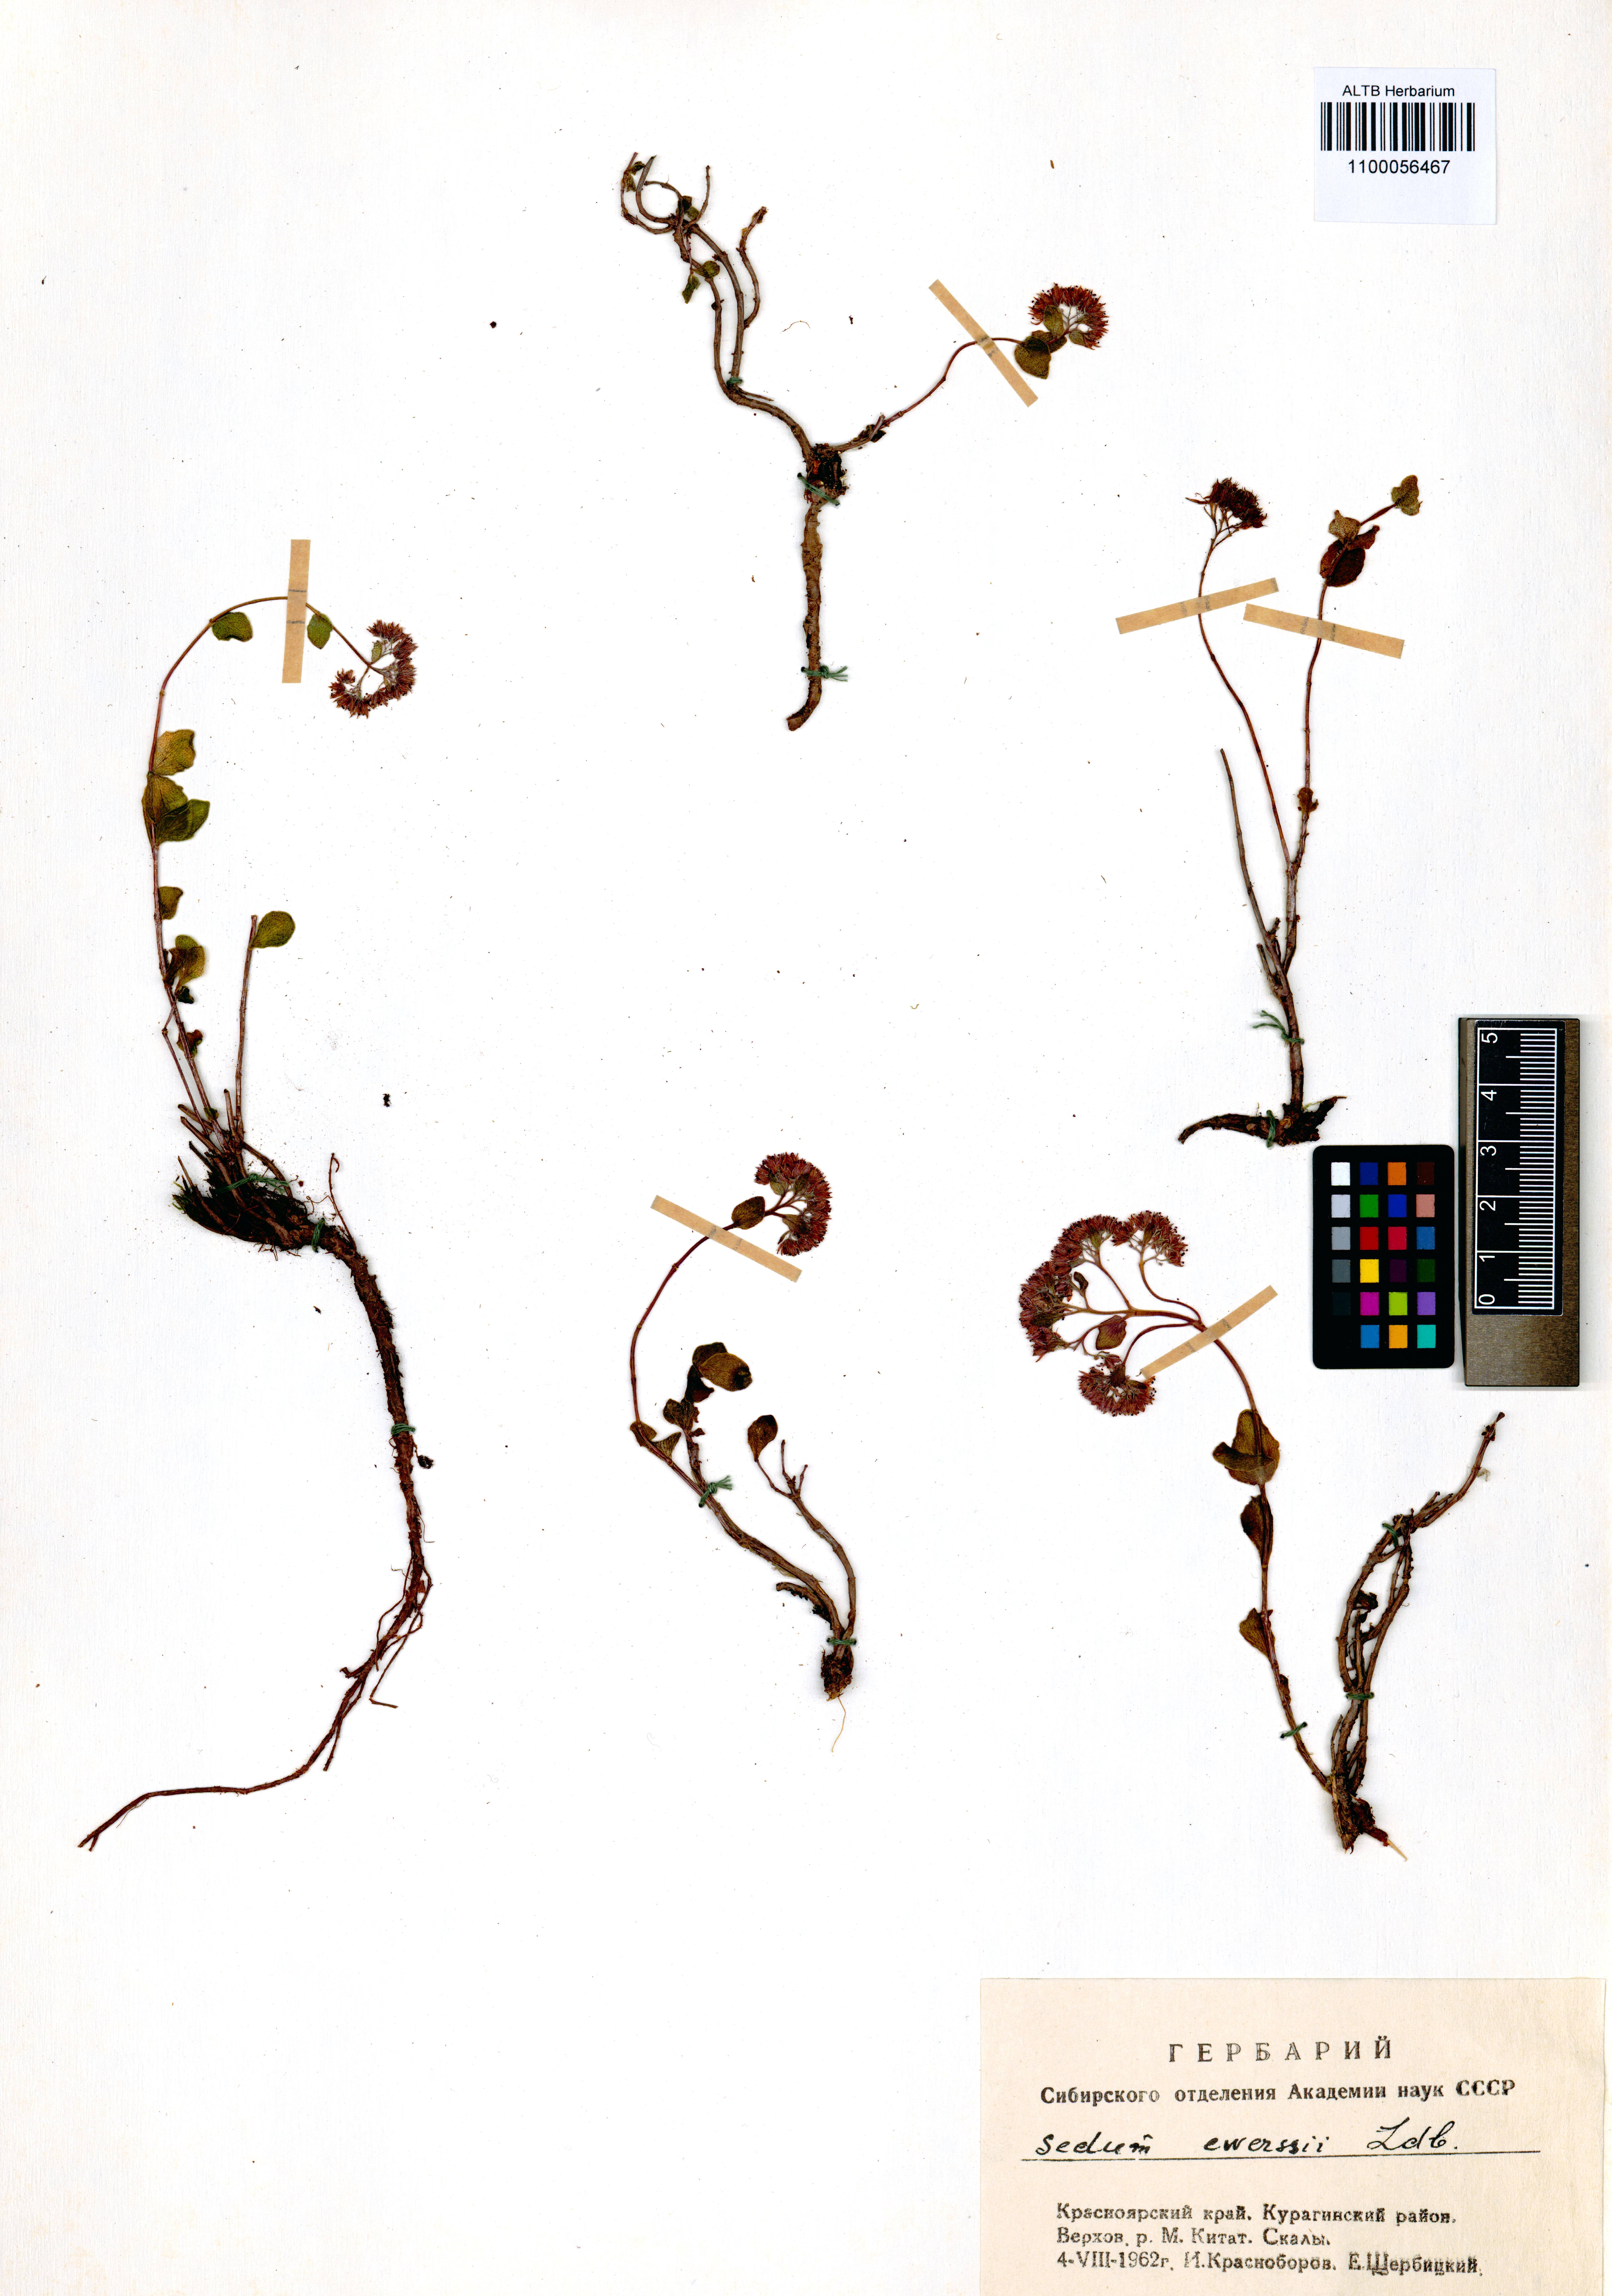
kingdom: Plantae
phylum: Tracheophyta
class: Magnoliopsida
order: Saxifragales
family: Crassulaceae
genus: Hylotelephium
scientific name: Hylotelephium ewersii
